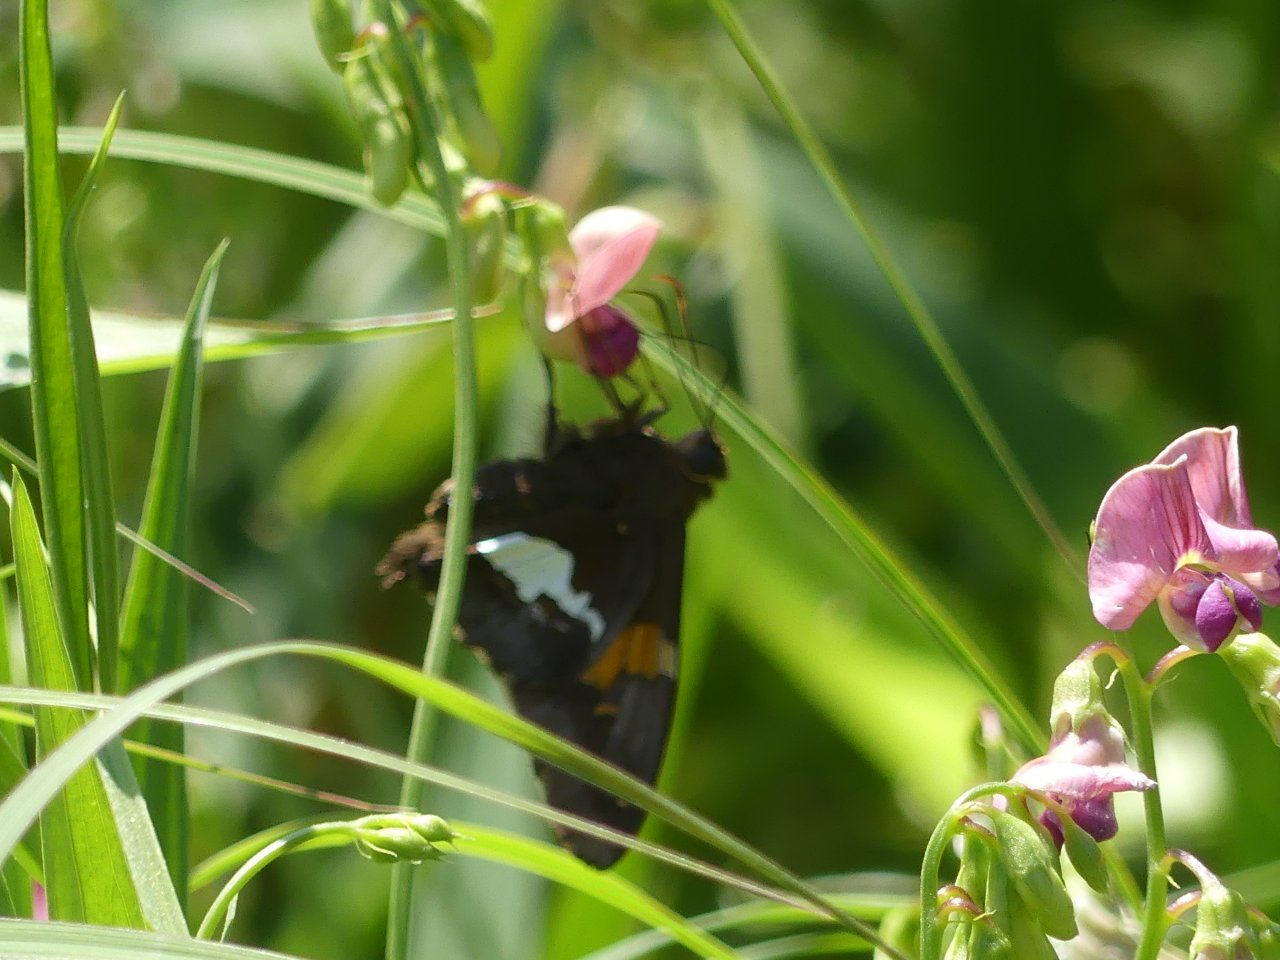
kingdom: Animalia
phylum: Arthropoda
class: Insecta
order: Lepidoptera
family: Hesperiidae
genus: Epargyreus
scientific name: Epargyreus clarus
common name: Silver-spotted Skipper
